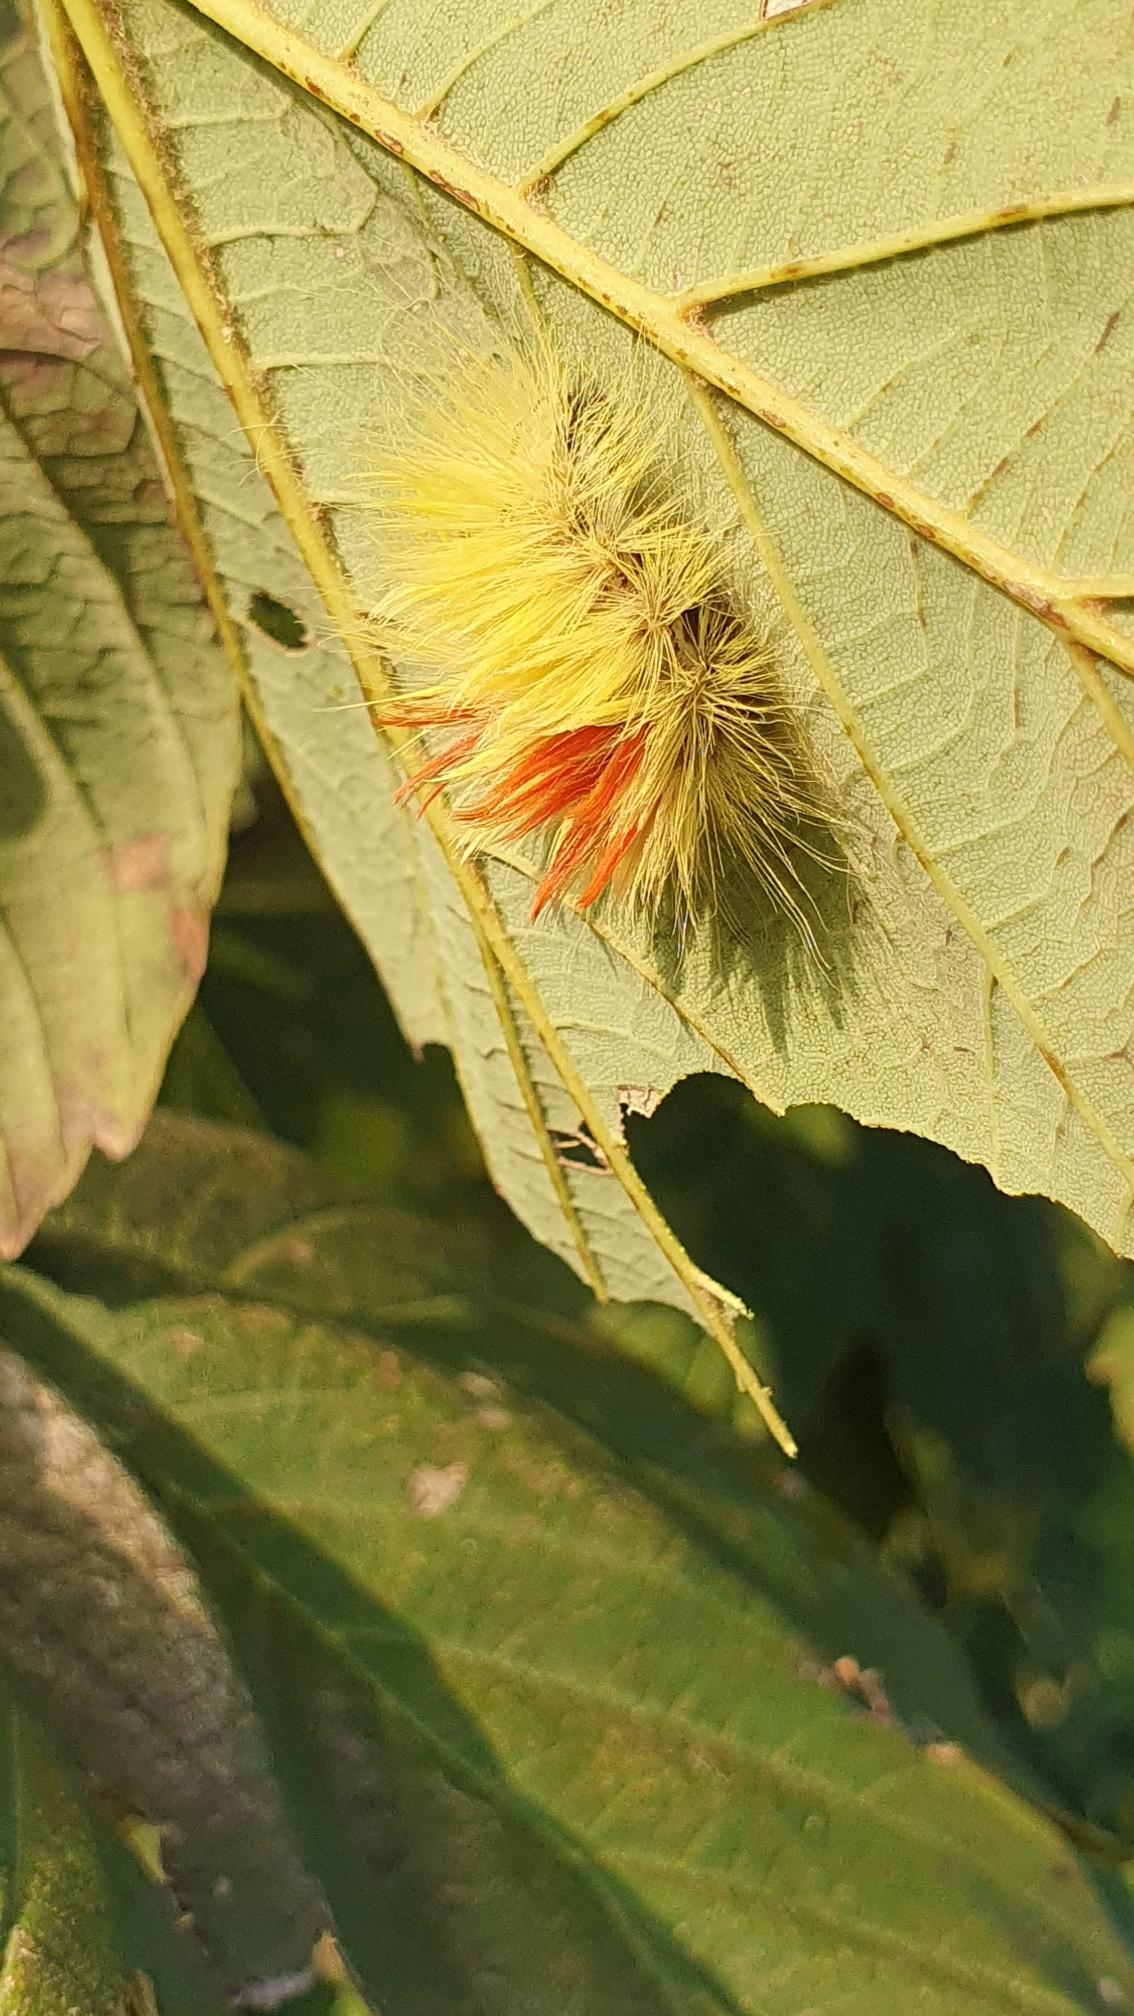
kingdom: Animalia
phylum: Arthropoda
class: Insecta
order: Lepidoptera
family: Erebidae
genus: Calliteara
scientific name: Calliteara pudibunda
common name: Bøgenonne
